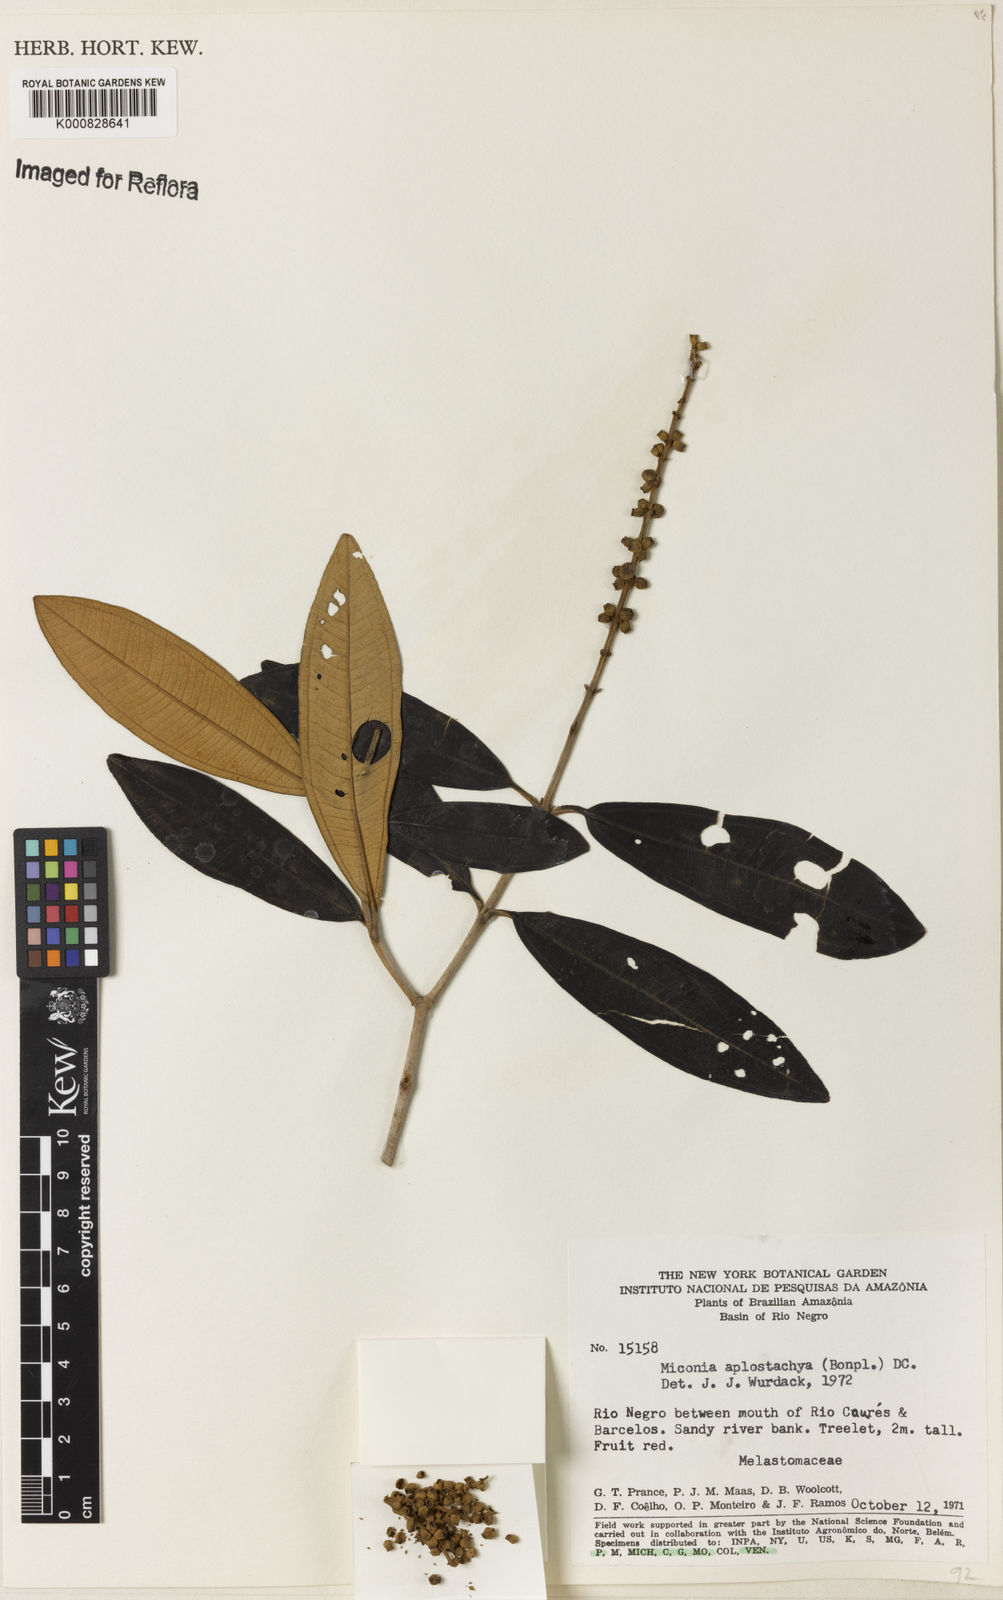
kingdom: Plantae
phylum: Tracheophyta
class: Magnoliopsida
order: Myrtales
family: Melastomataceae
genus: Miconia
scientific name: Miconia aplostachya
